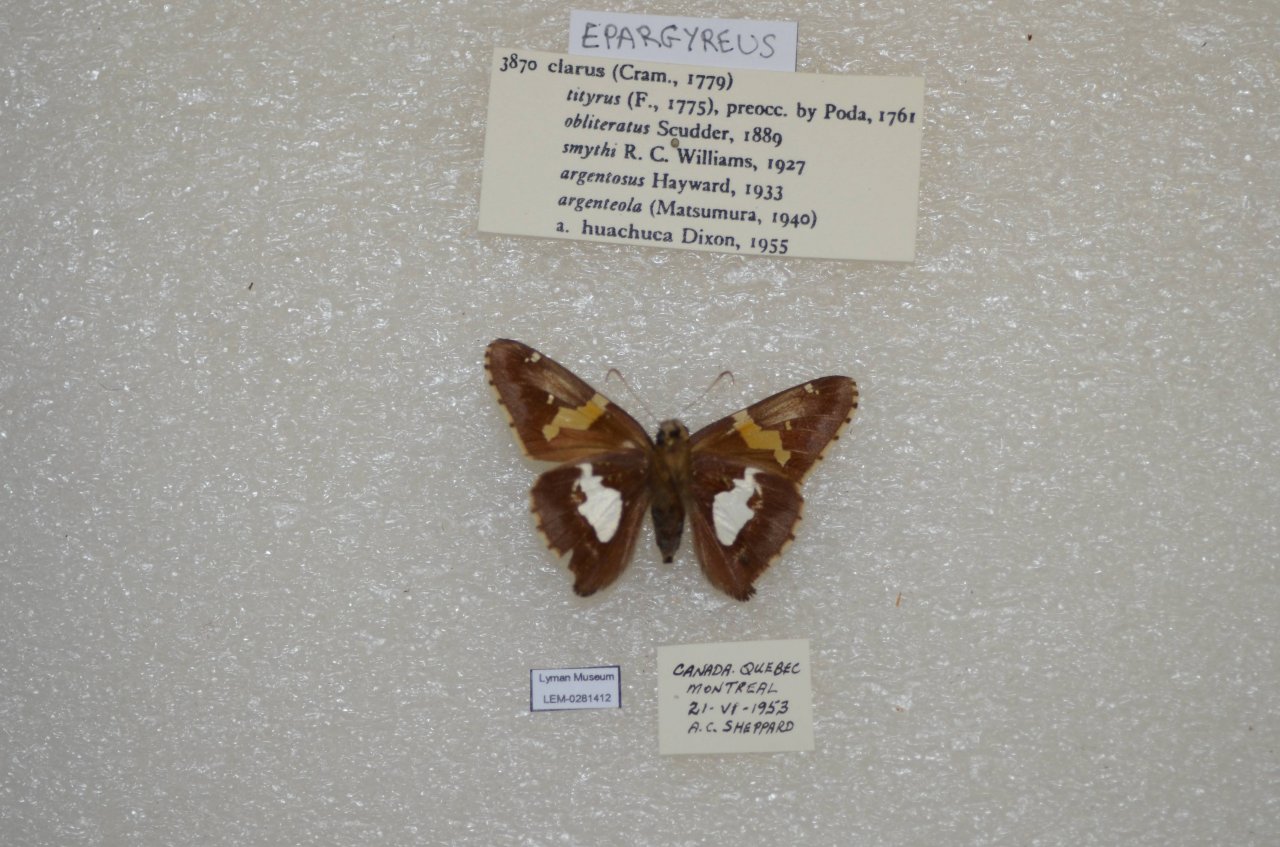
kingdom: Animalia
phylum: Arthropoda
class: Insecta
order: Lepidoptera
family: Hesperiidae
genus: Epargyreus
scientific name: Epargyreus clarus
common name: Silver-spotted Skipper
